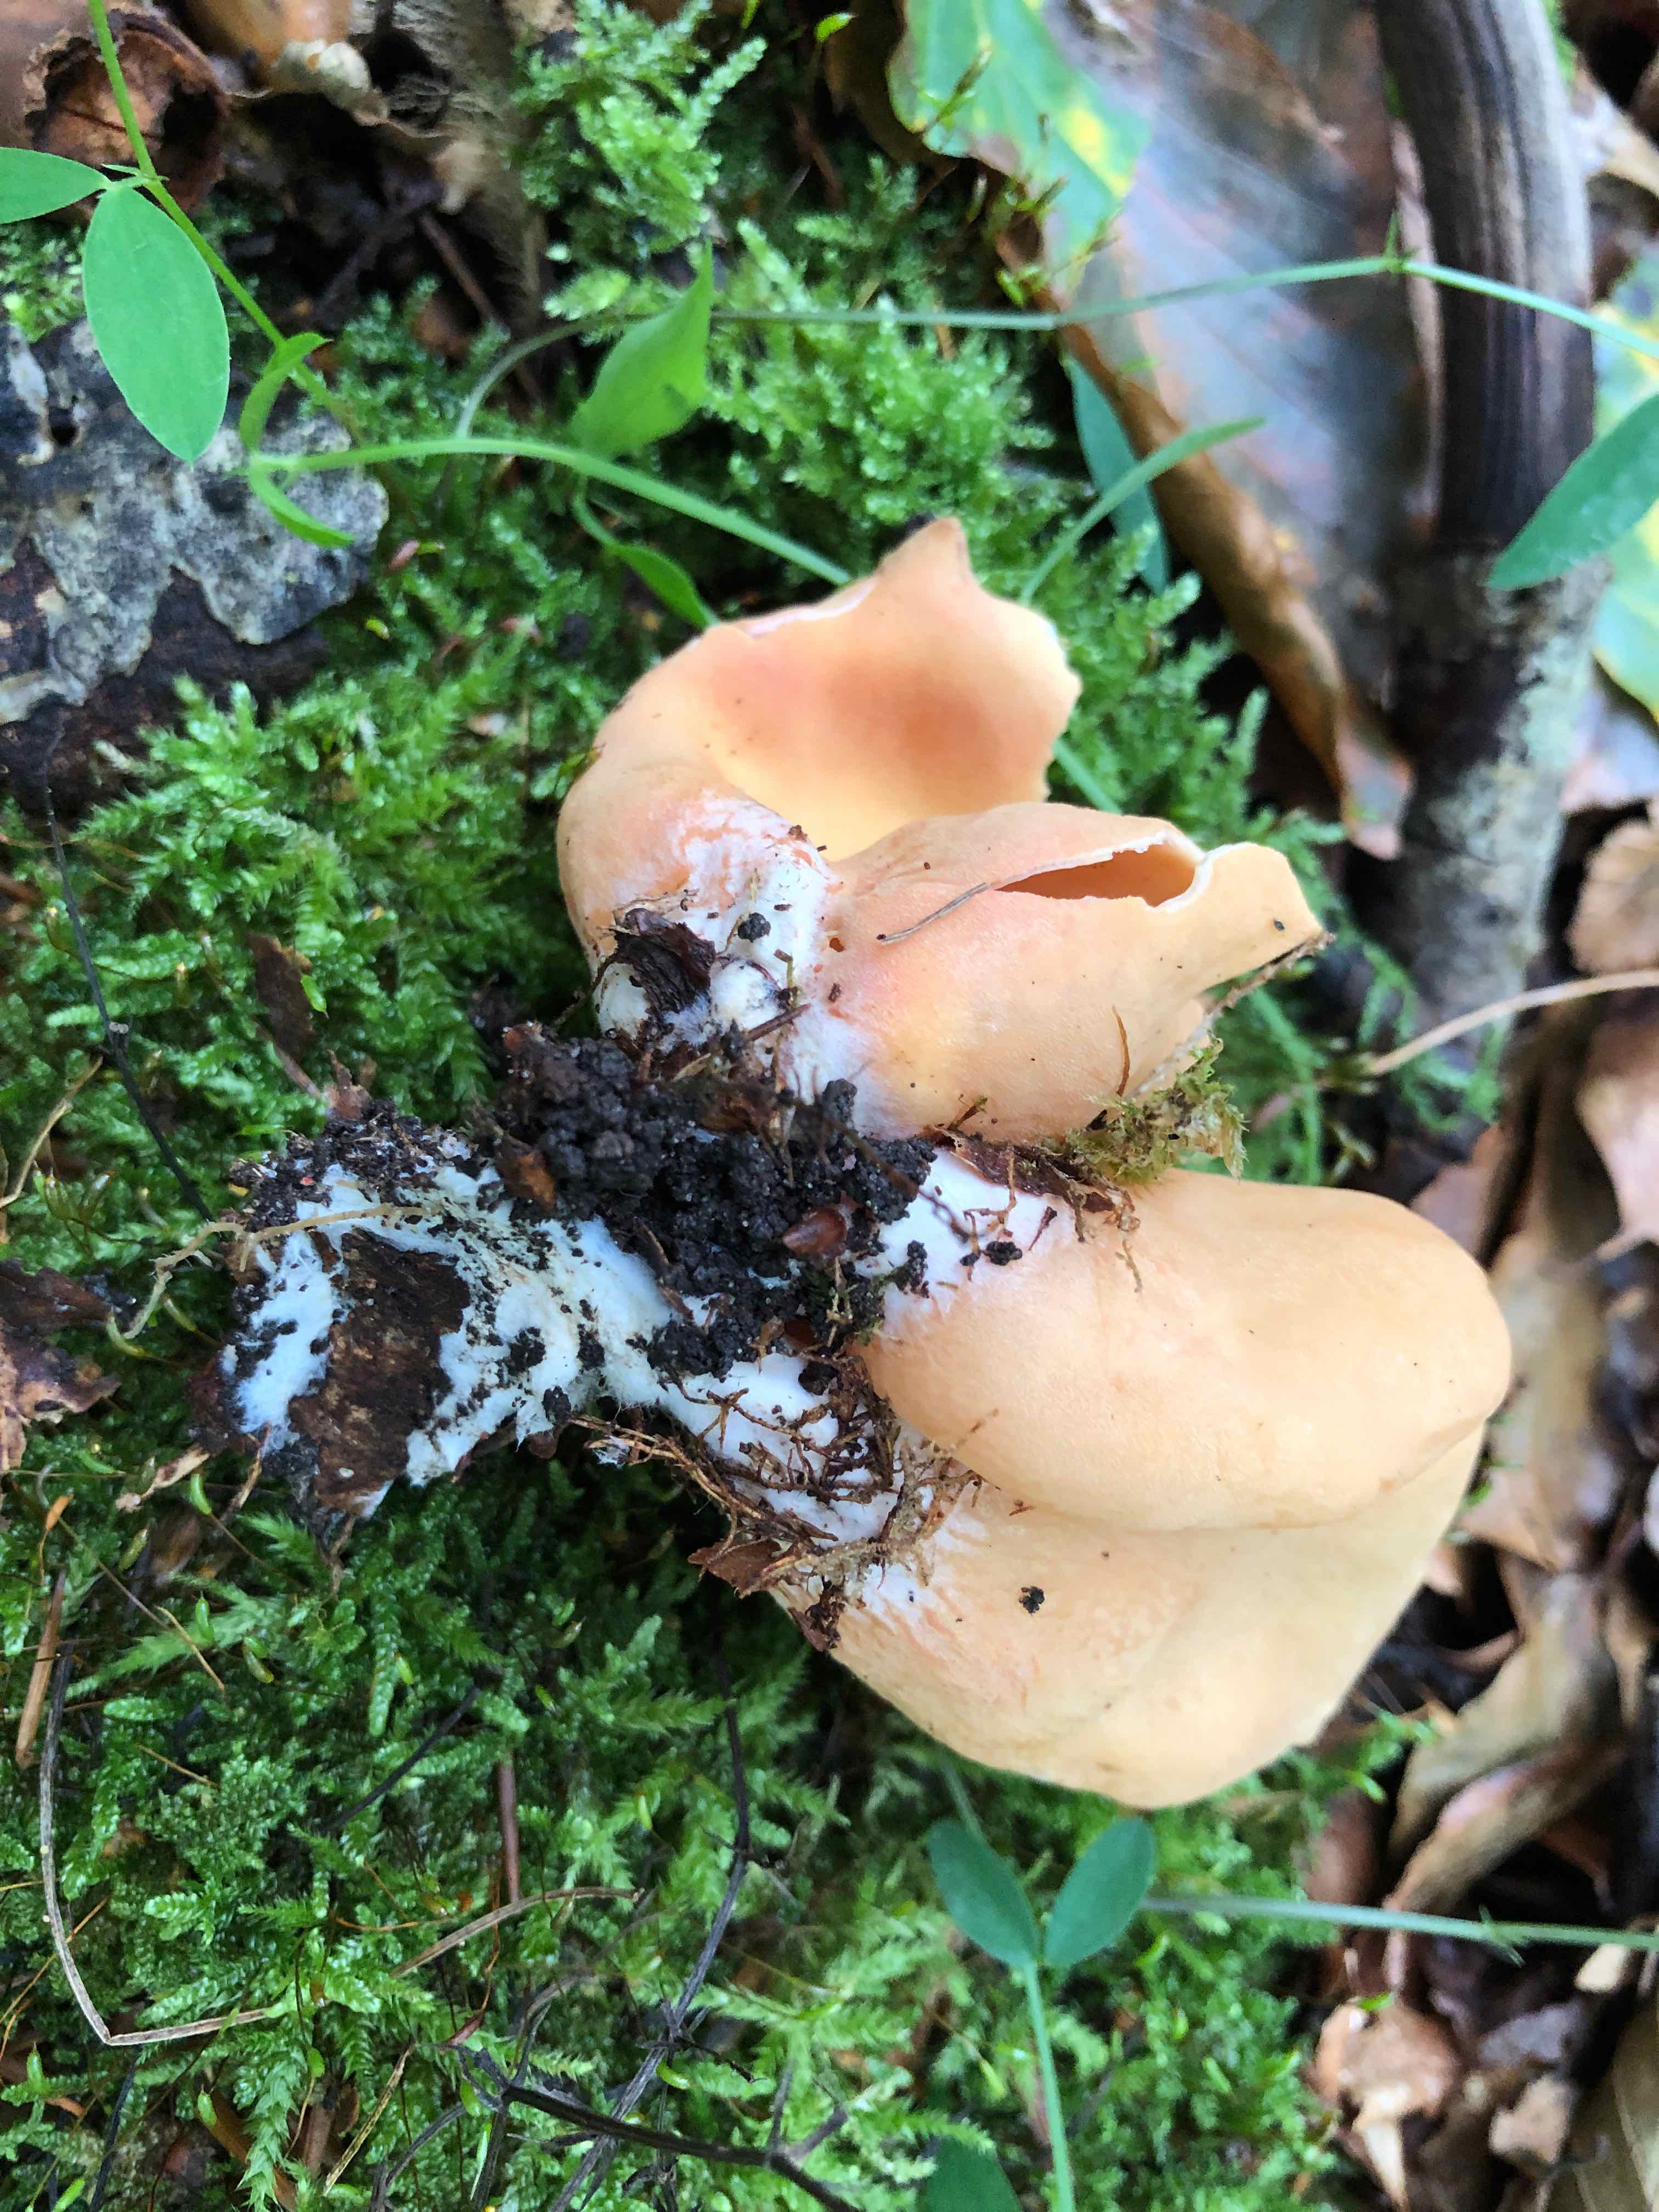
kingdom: Fungi
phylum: Ascomycota
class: Pezizomycetes
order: Pezizales
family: Otideaceae
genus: Otidea
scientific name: Otidea onotica
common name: æsel-ørebæger
